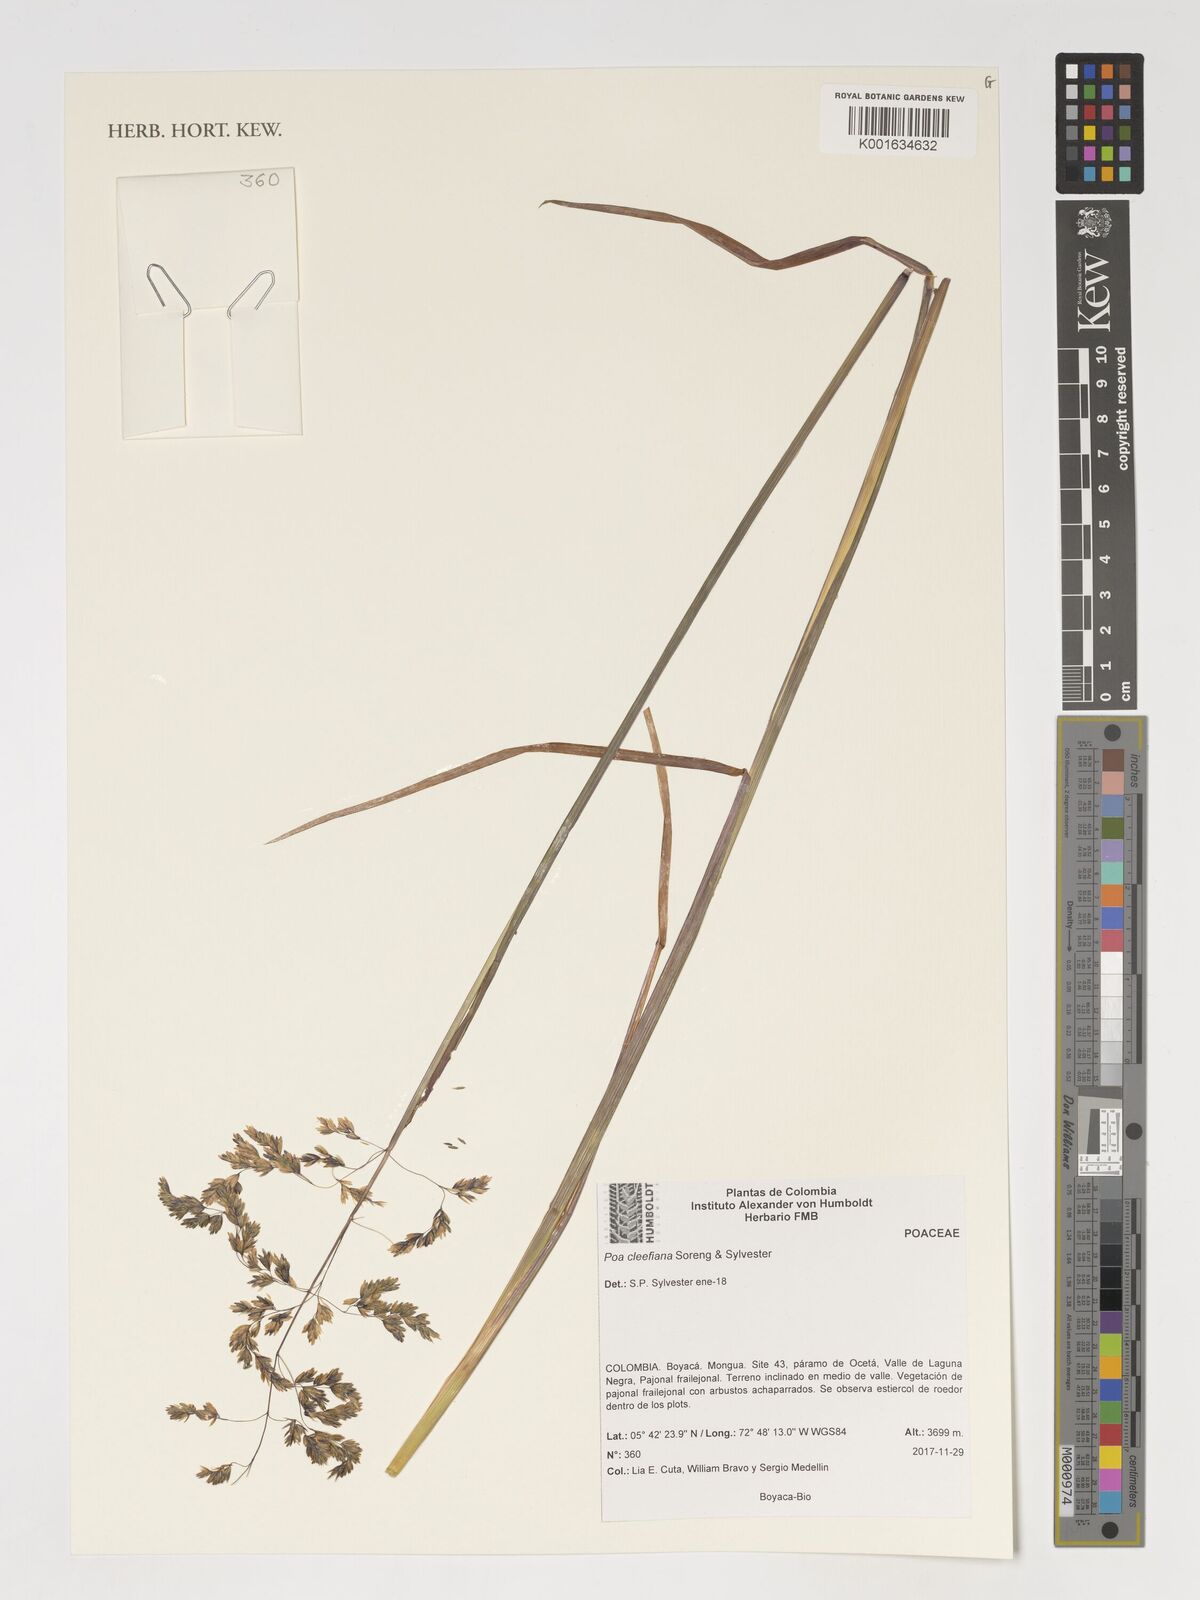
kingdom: Plantae
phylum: Tracheophyta
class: Liliopsida
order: Poales
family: Poaceae
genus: Poa
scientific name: Poa
